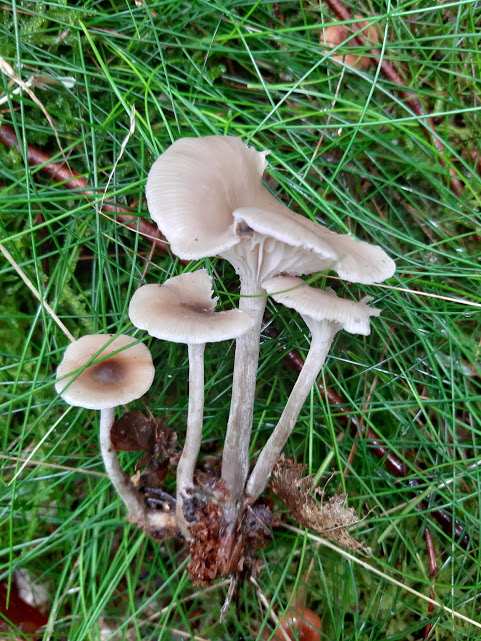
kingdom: Fungi
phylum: Basidiomycota
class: Agaricomycetes
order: Agaricales
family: Tricholomataceae
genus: Clitocybe
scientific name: Clitocybe
